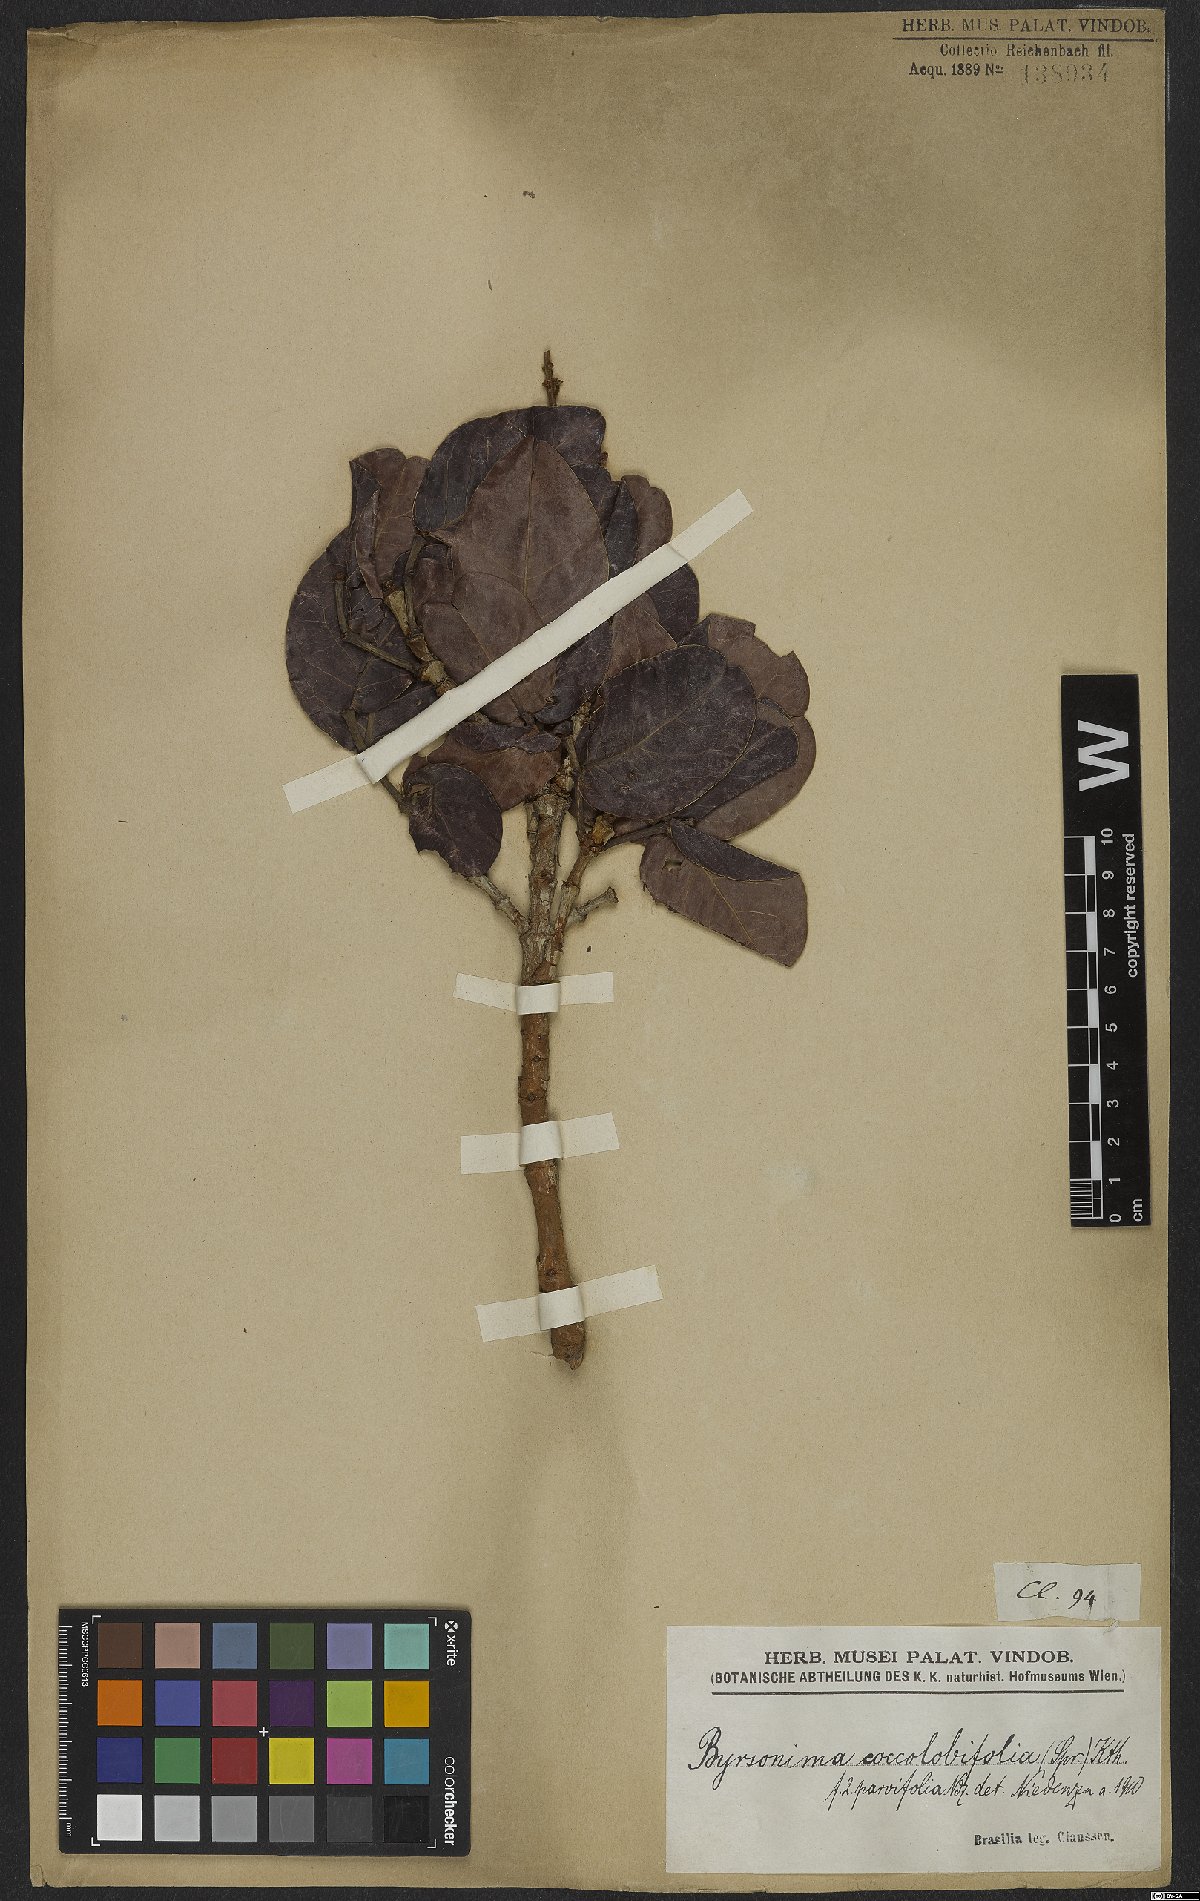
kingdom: Plantae
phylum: Tracheophyta
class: Magnoliopsida
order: Malpighiales
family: Malpighiaceae
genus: Byrsonima
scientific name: Byrsonima coccolobifolia
